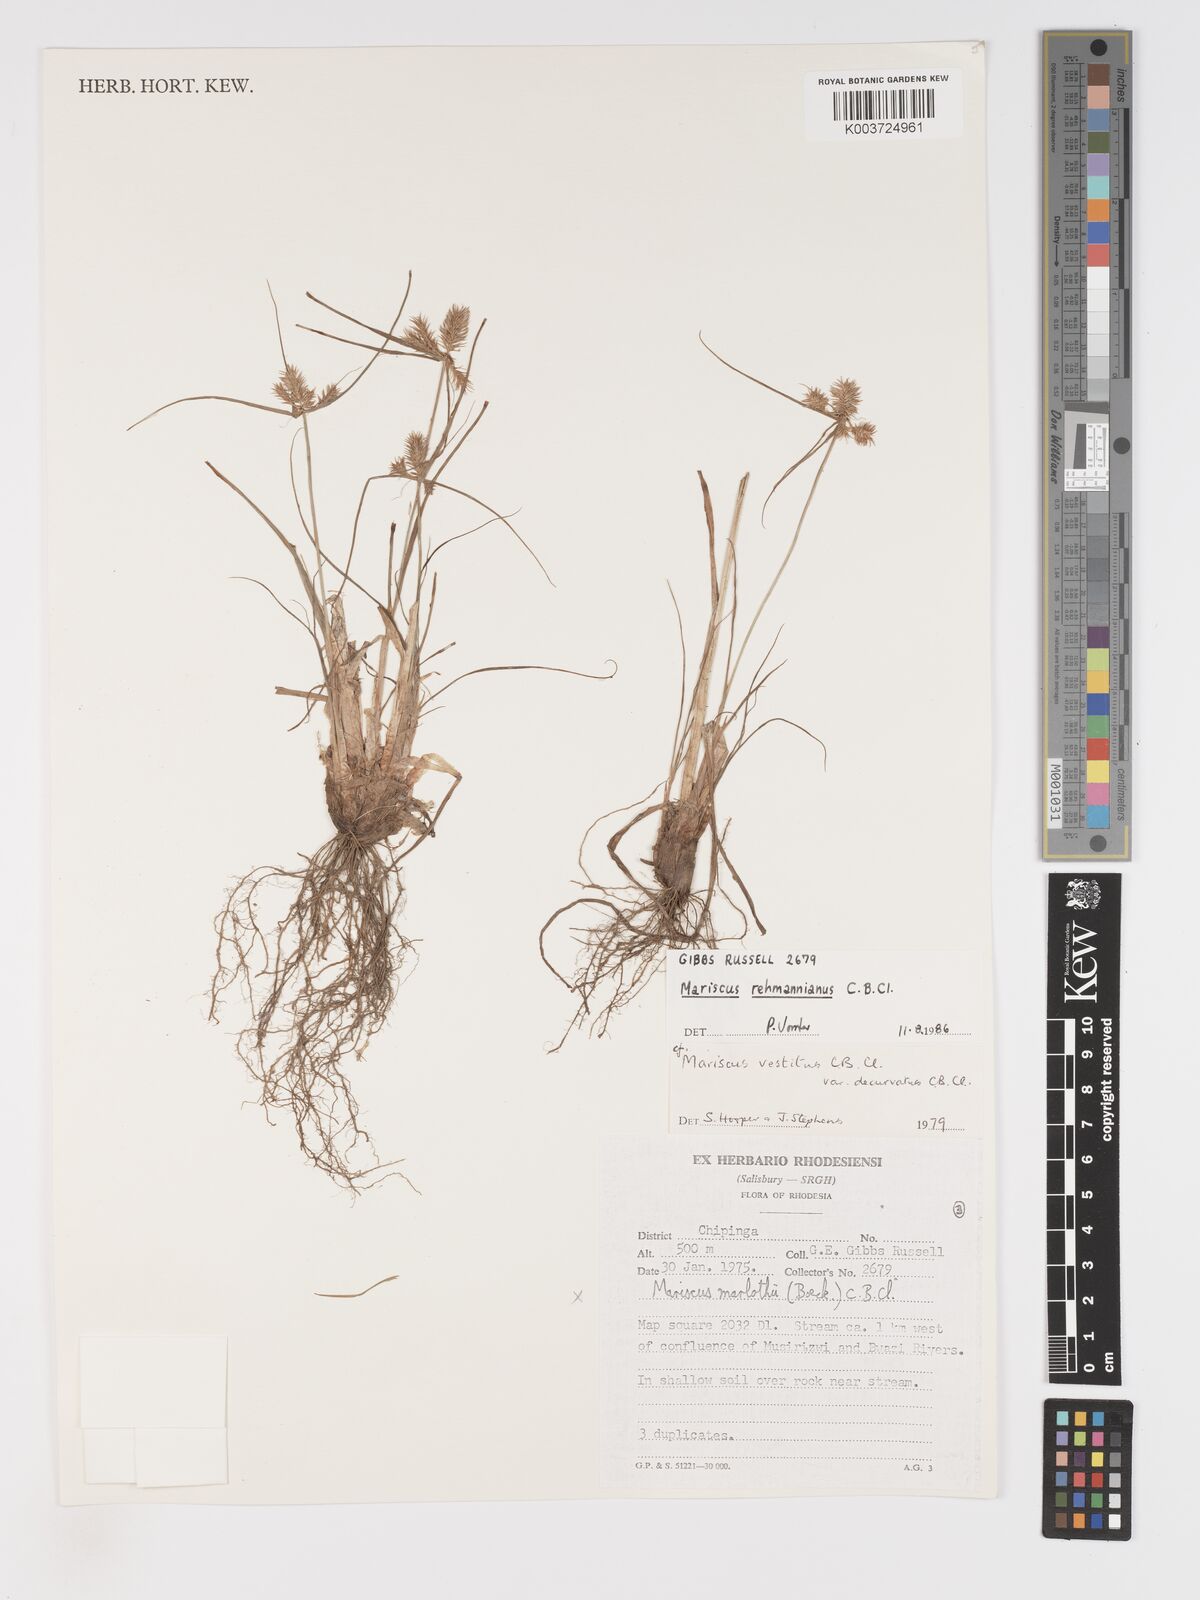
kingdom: Plantae
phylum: Tracheophyta
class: Liliopsida
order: Poales
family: Cyperaceae
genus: Cyperus
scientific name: Cyperus indecorus
